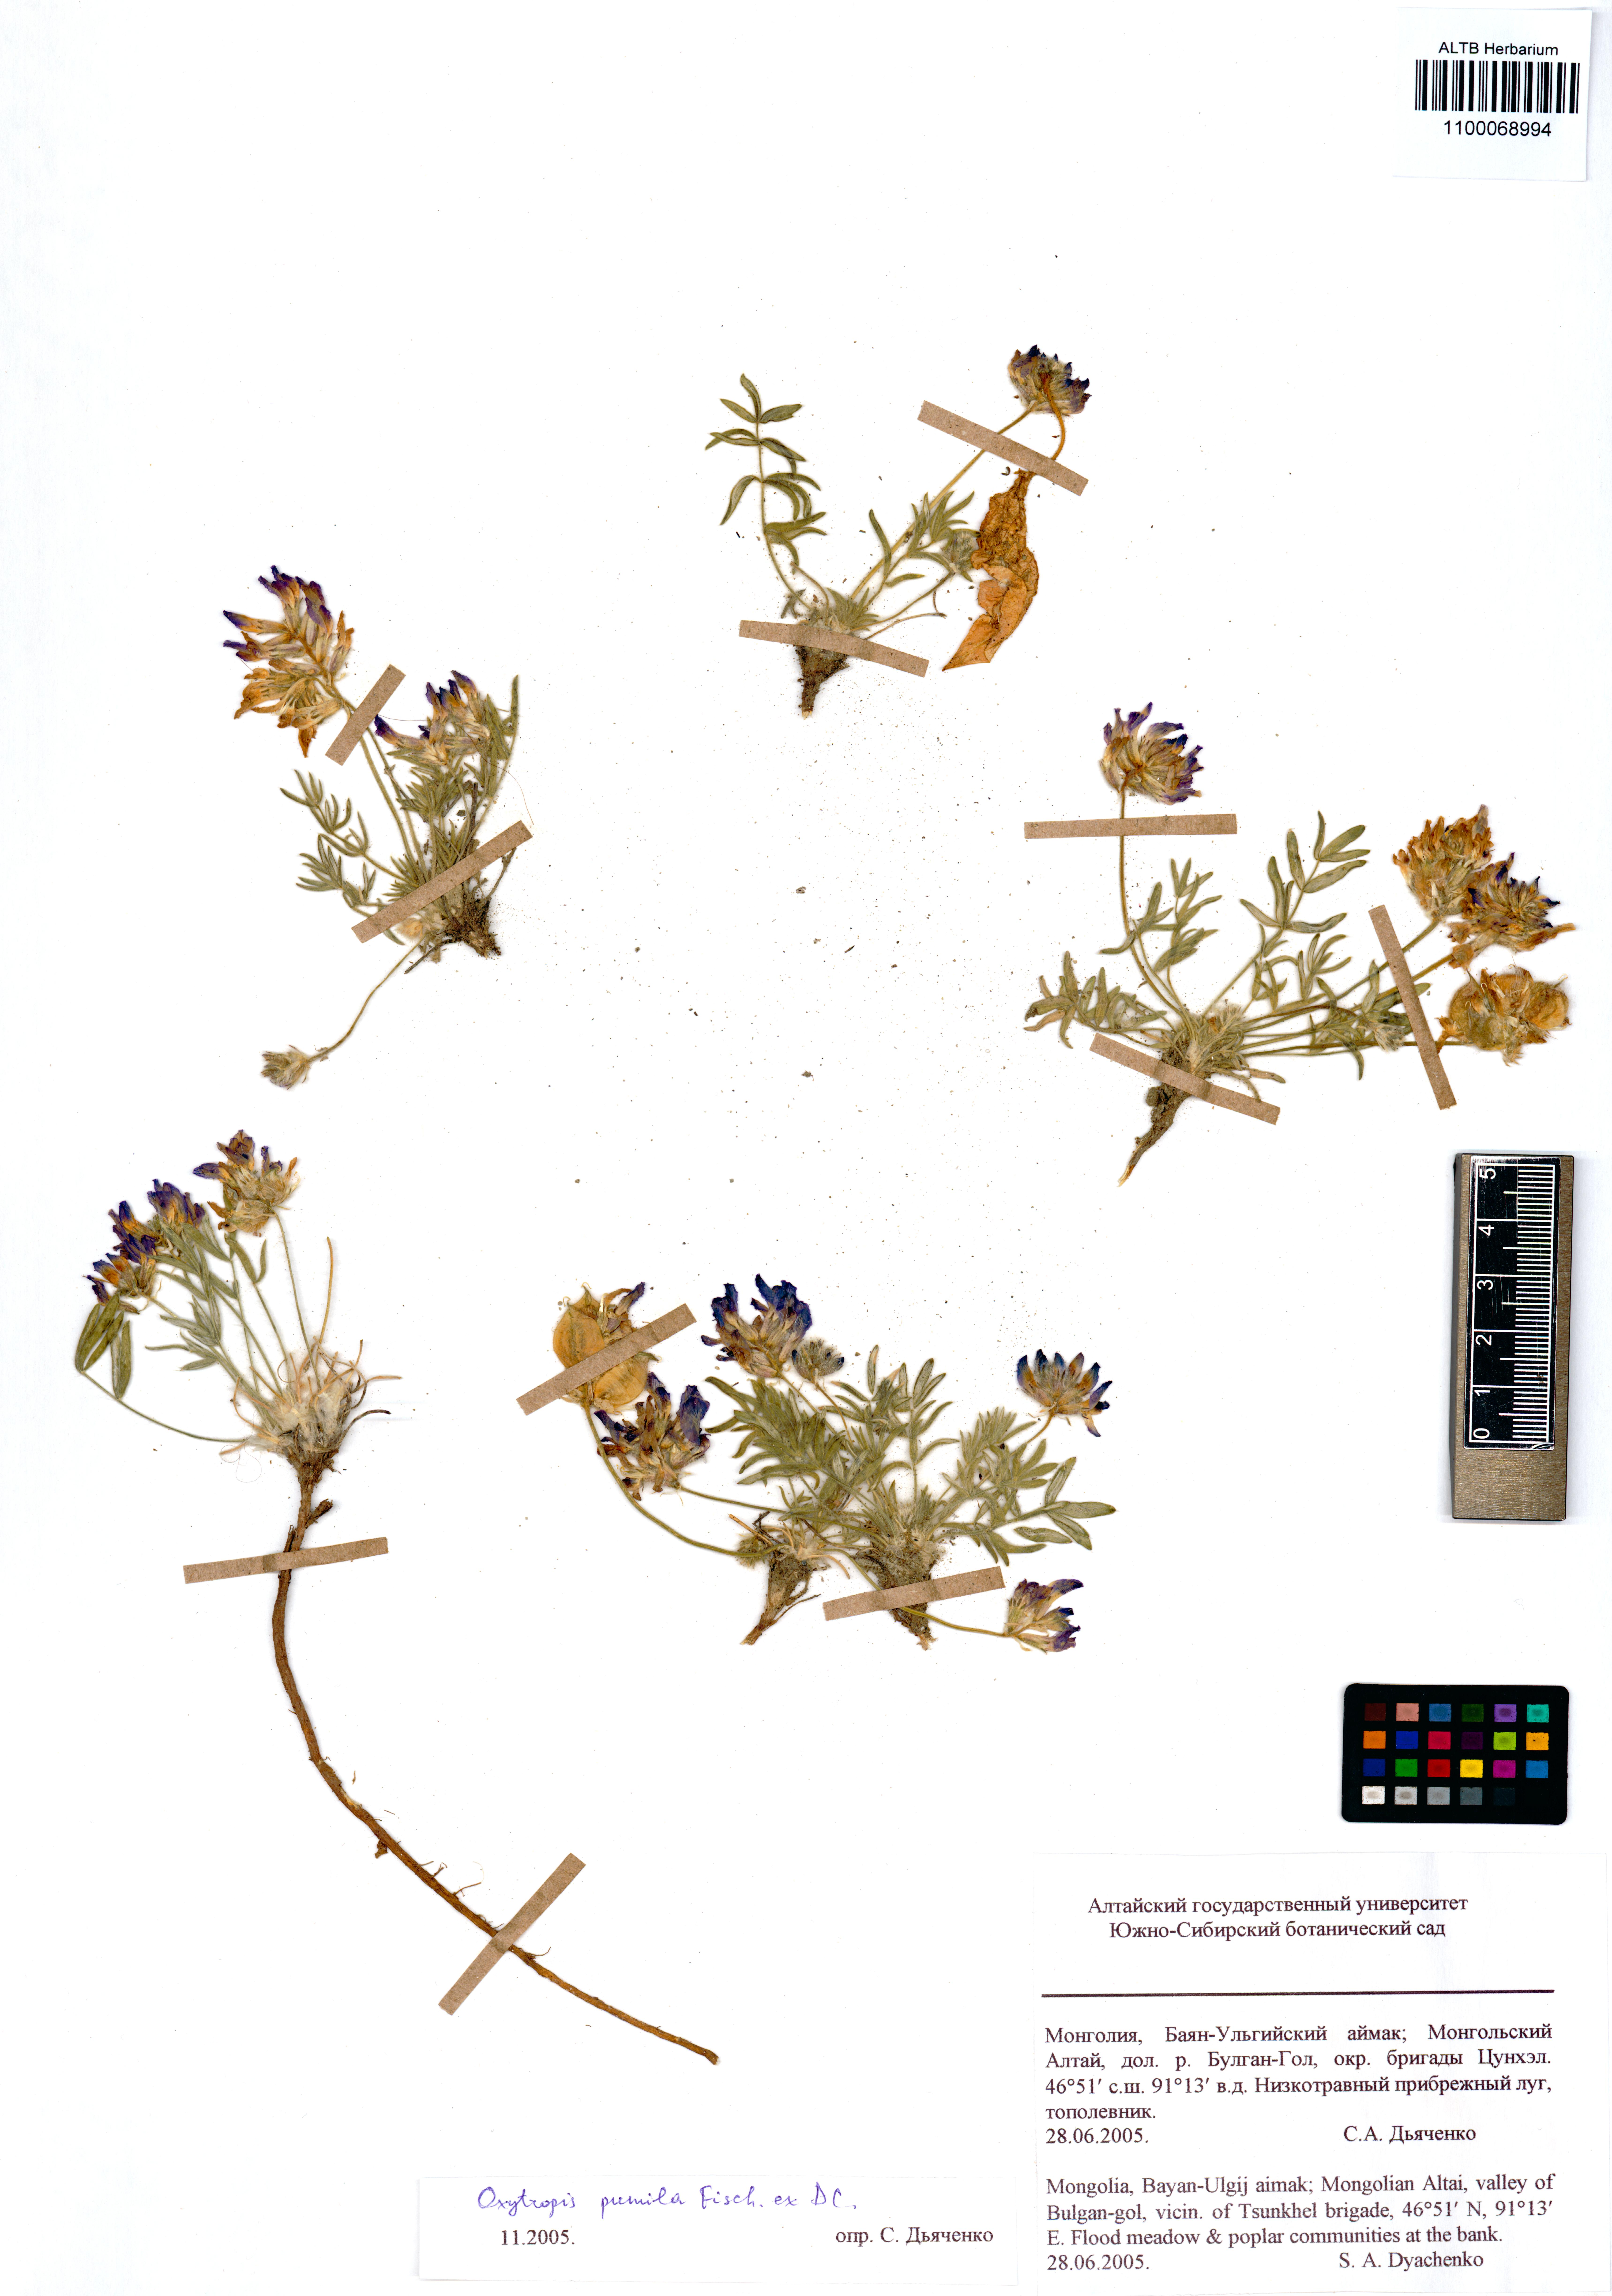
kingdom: Plantae
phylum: Tracheophyta
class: Magnoliopsida
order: Fabales
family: Fabaceae
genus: Oxytropis
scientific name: Oxytropis pumila
